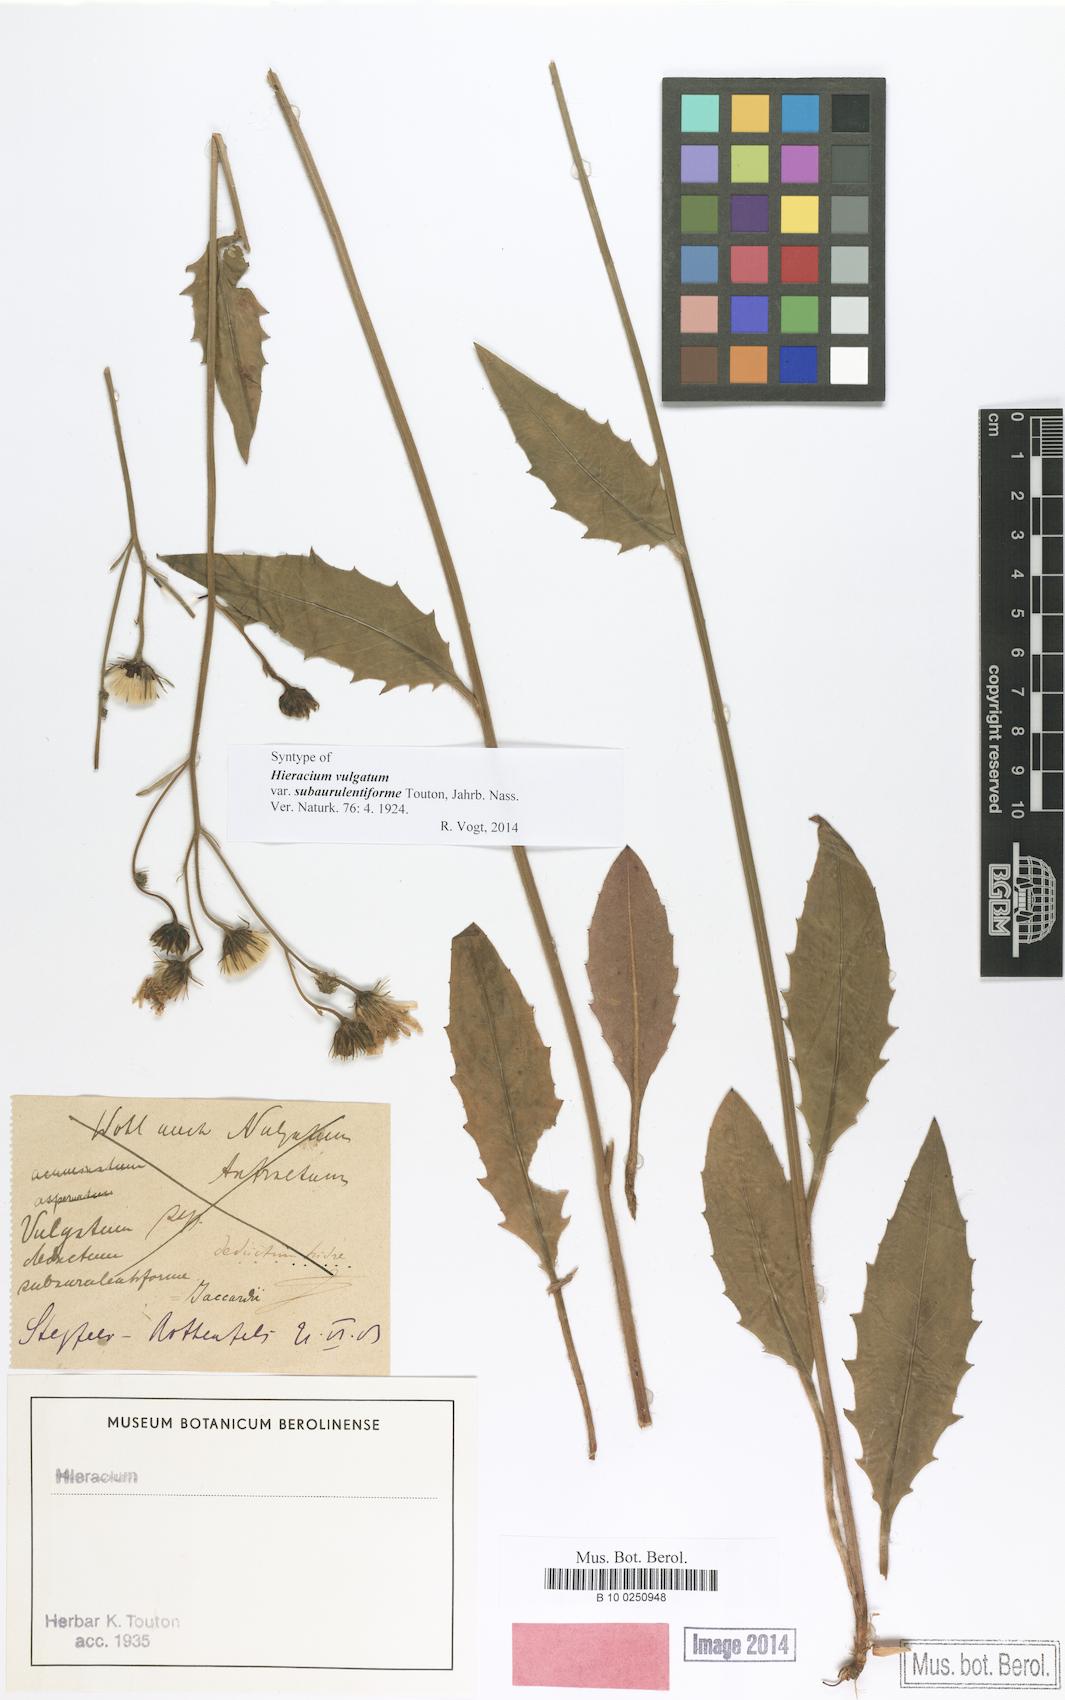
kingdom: Plantae
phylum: Tracheophyta
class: Magnoliopsida
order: Asterales
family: Asteraceae
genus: Hieracium
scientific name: Hieracium vulgatum
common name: Common hawkweed
